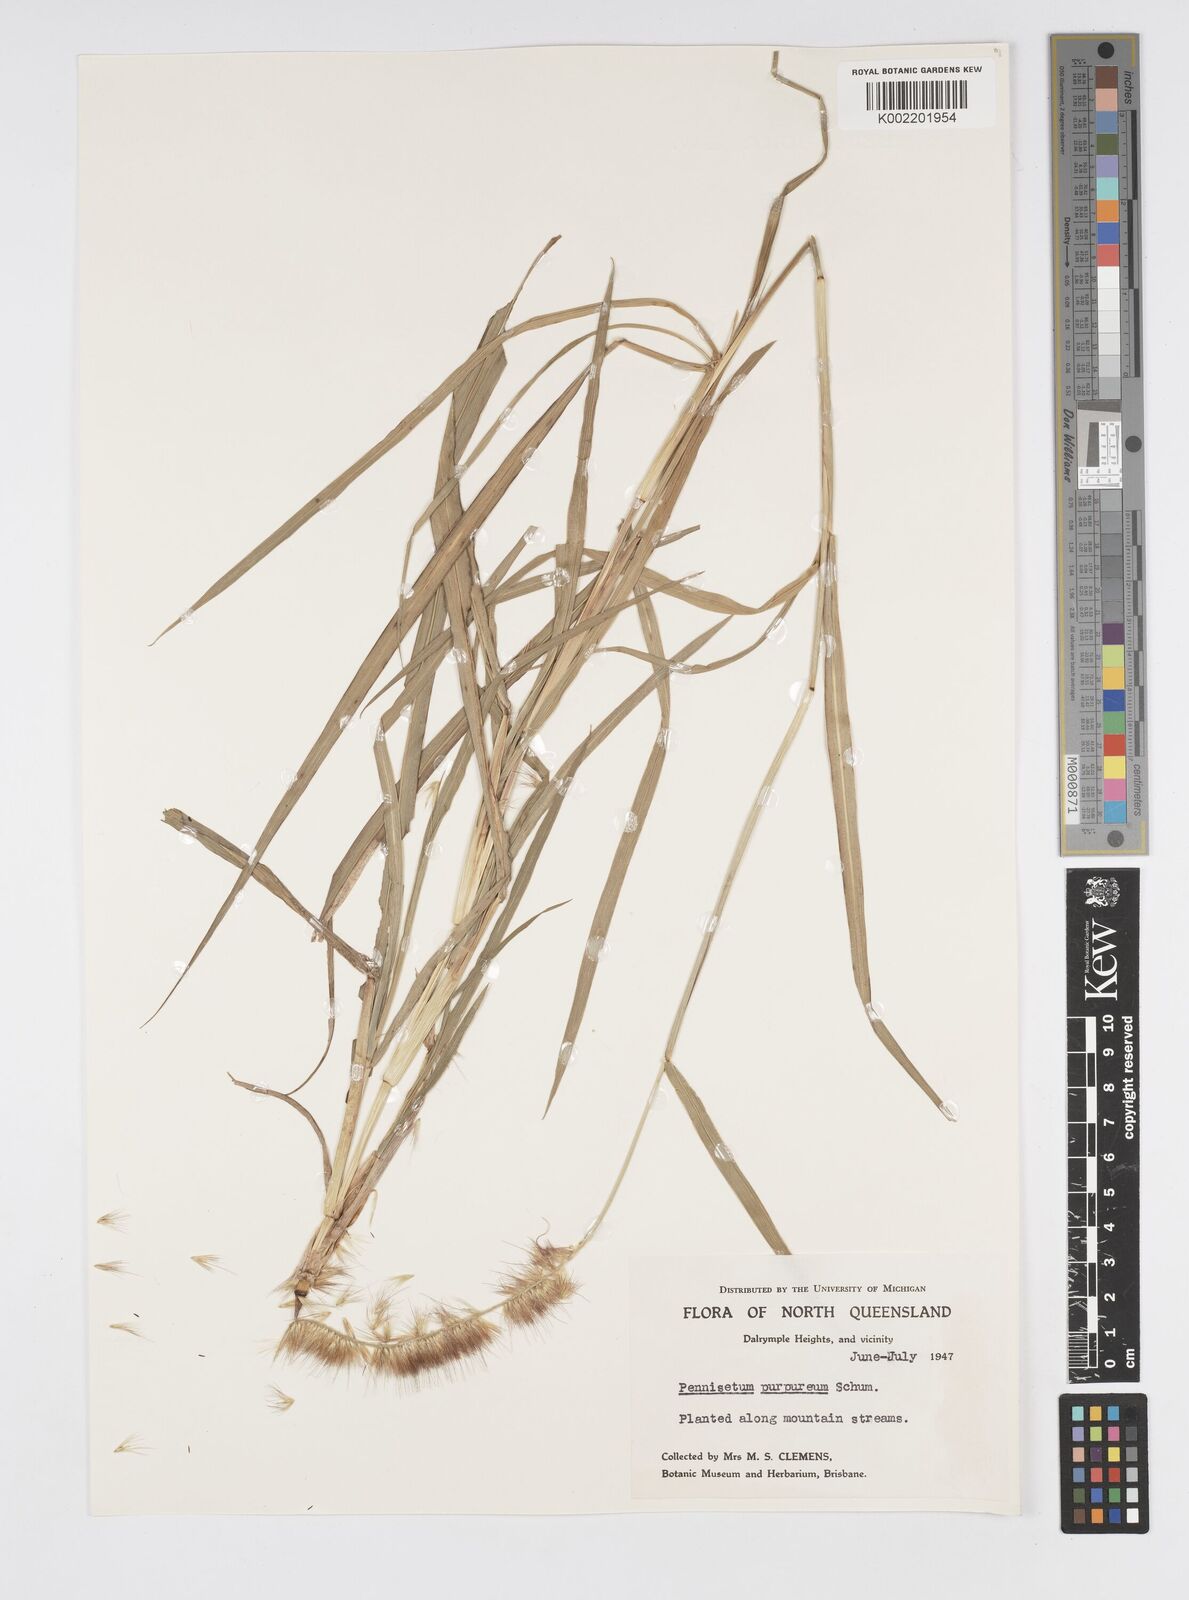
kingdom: Plantae
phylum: Tracheophyta
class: Liliopsida
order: Poales
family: Poaceae
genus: Cenchrus
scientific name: Cenchrus purpureus
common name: Elephant grass
